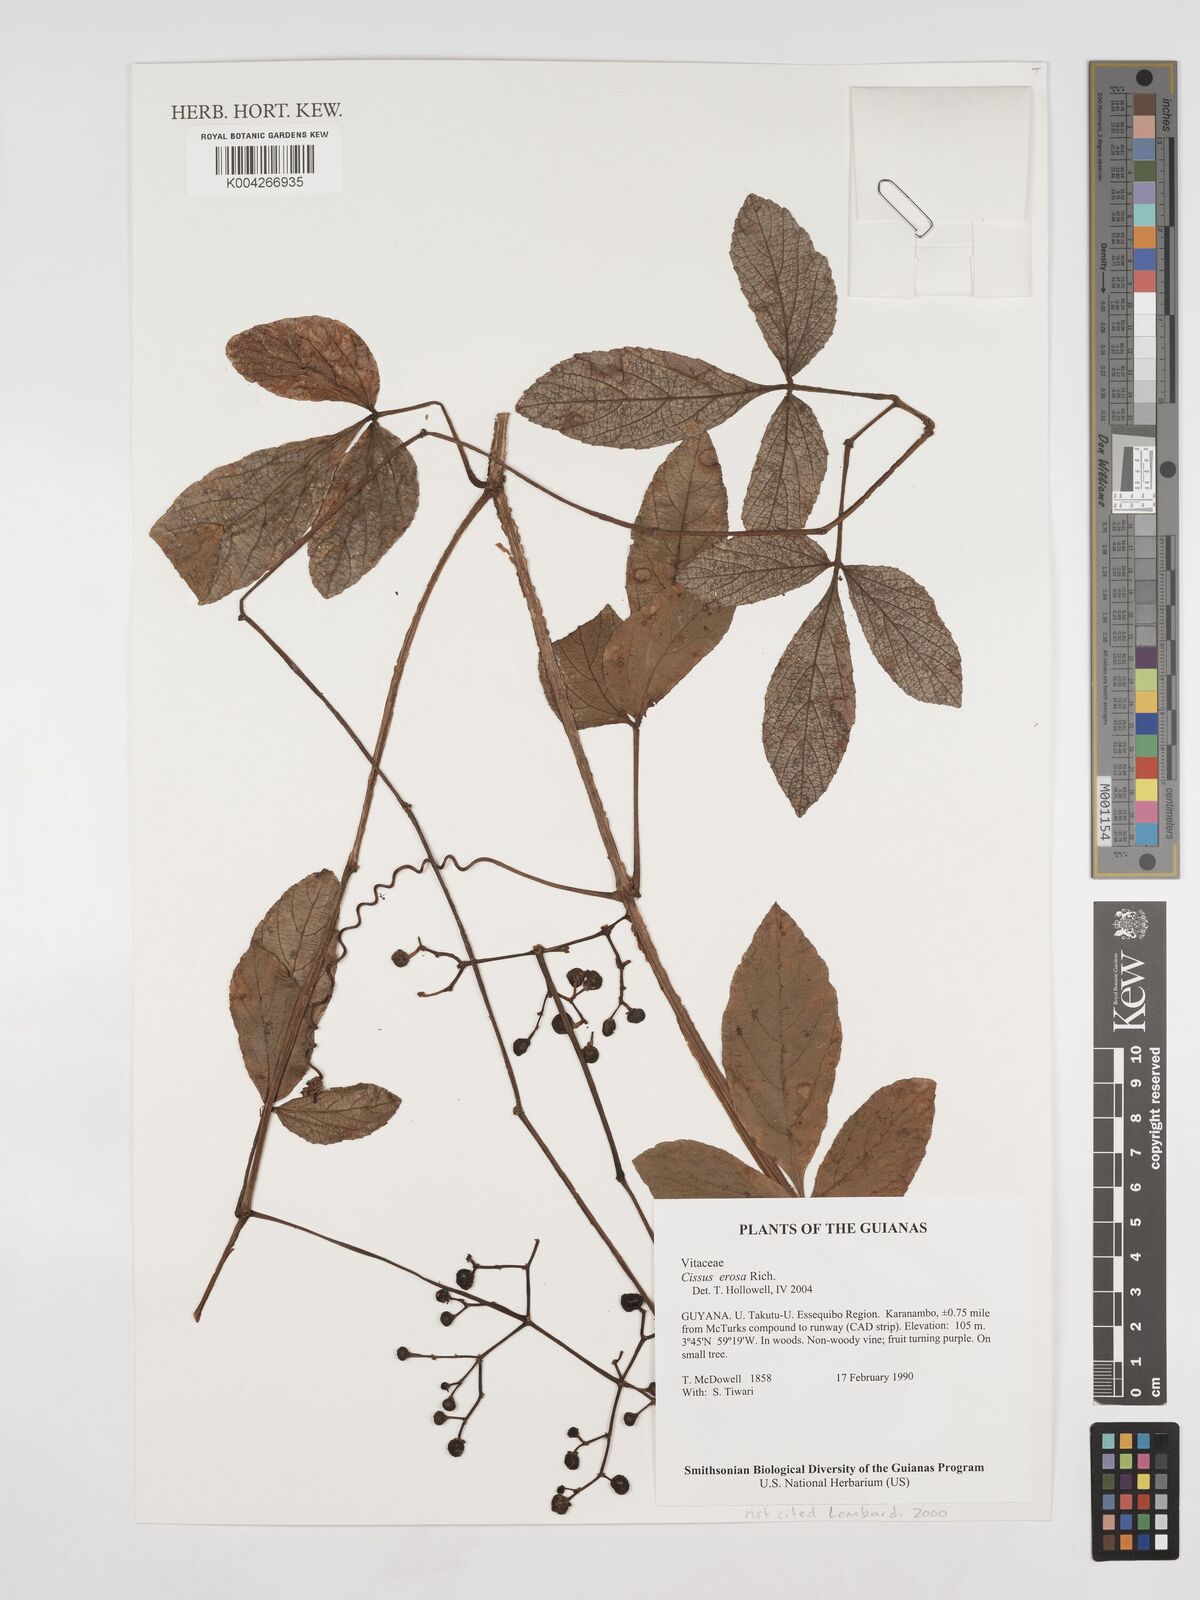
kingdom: Plantae
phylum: Tracheophyta
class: Magnoliopsida
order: Vitales
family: Vitaceae
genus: Cissus
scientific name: Cissus erosa
